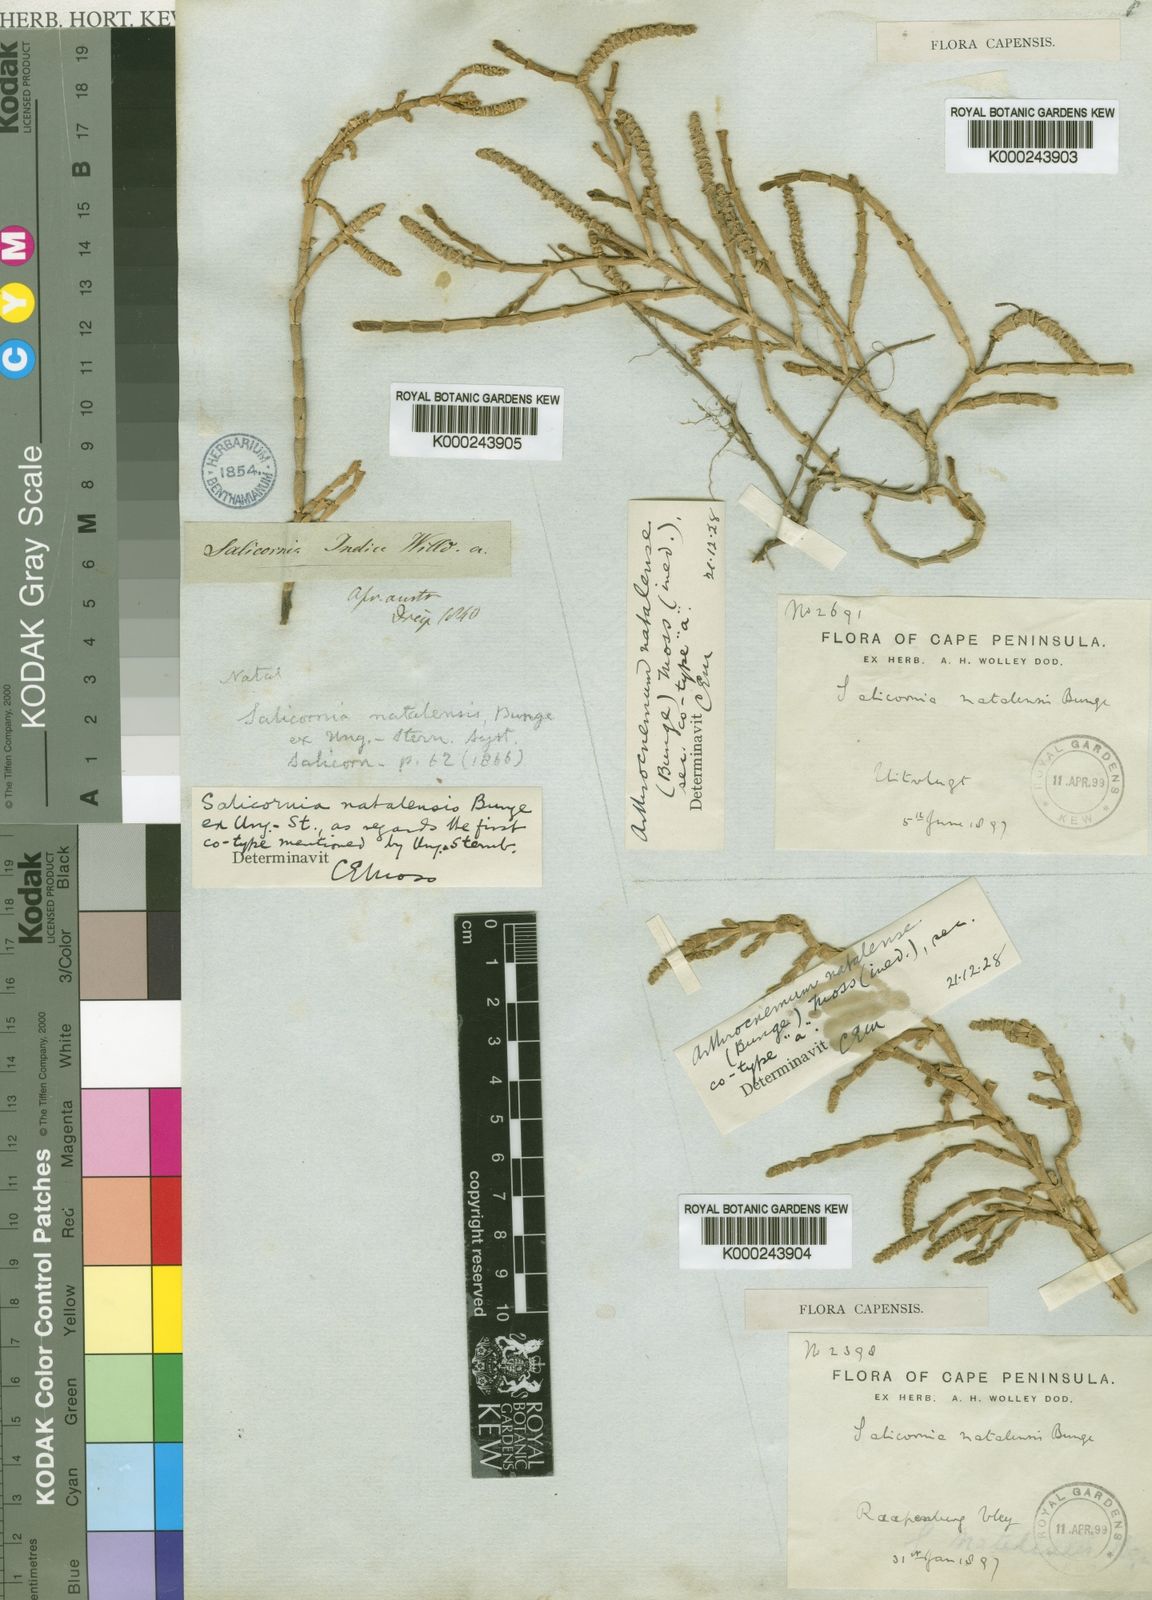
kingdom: Plantae
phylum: Tracheophyta
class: Magnoliopsida
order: Caryophyllales
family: Amaranthaceae
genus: Salicornia
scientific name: Salicornia
